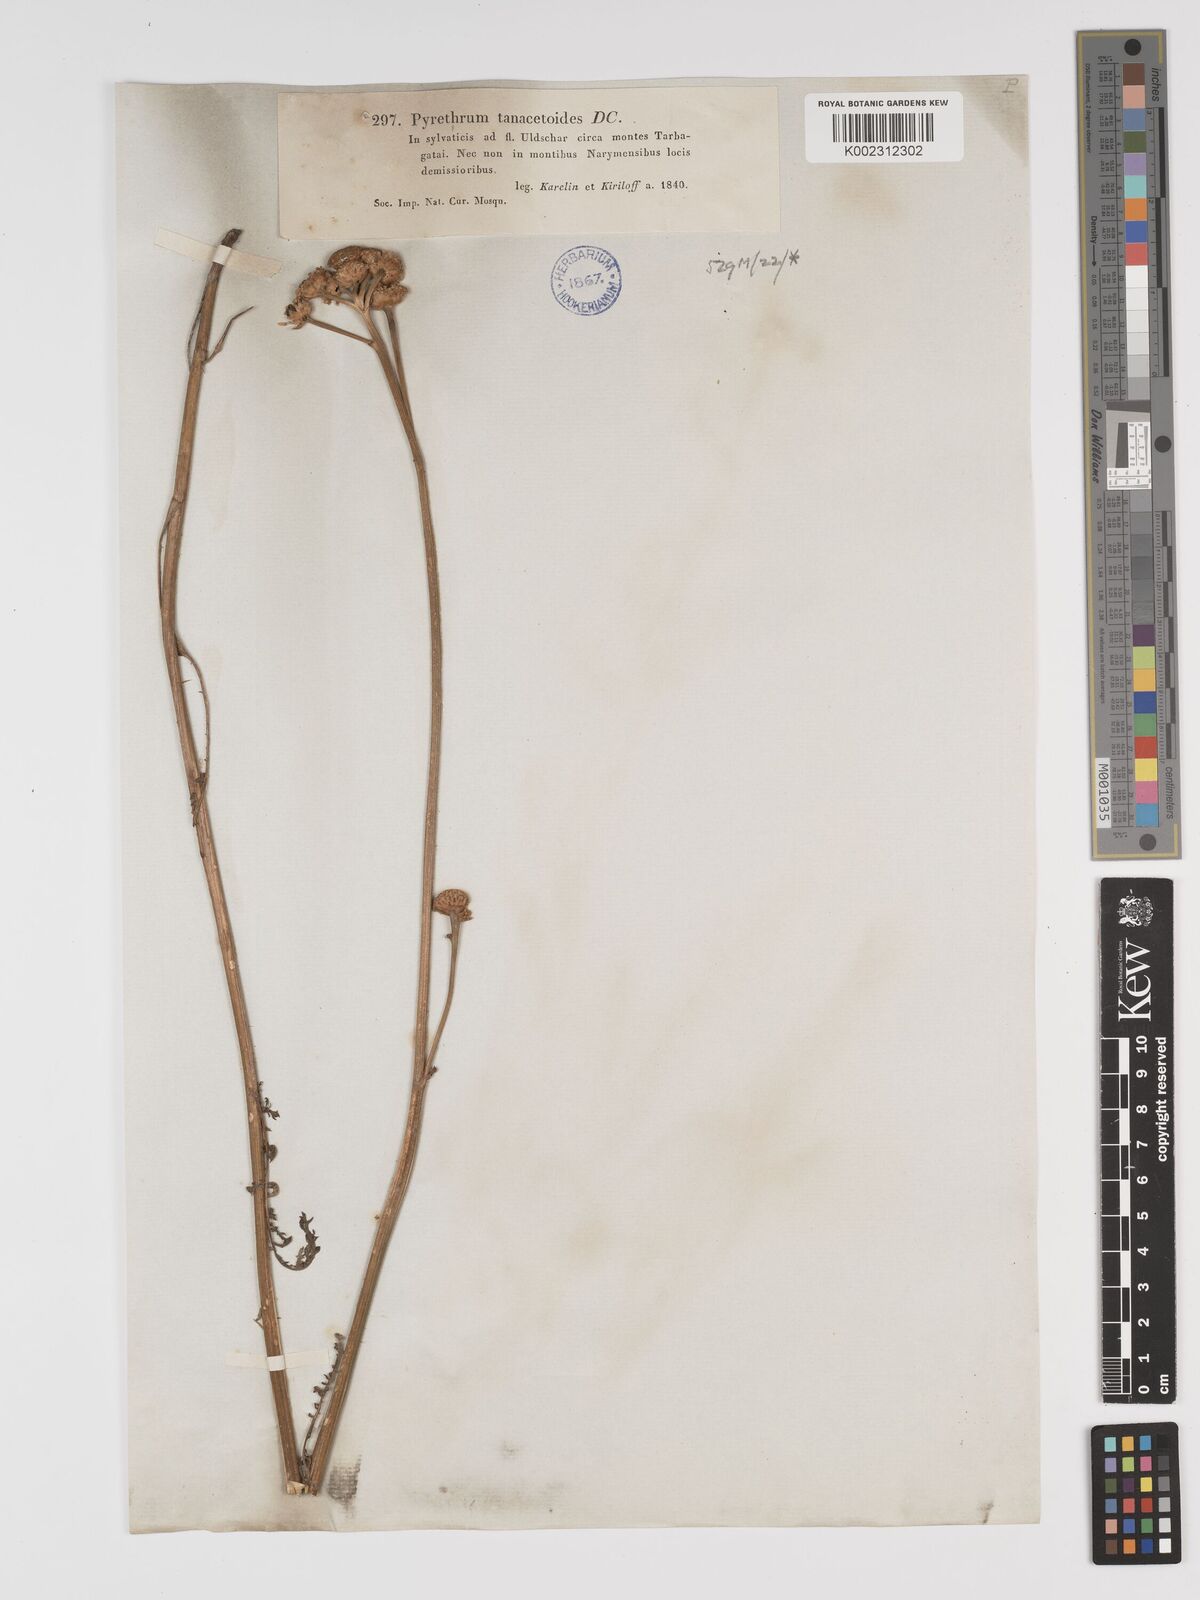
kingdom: Plantae
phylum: Tracheophyta
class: Magnoliopsida
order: Asterales
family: Asteraceae
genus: Tanacetum
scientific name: Tanacetum tanacetoides
